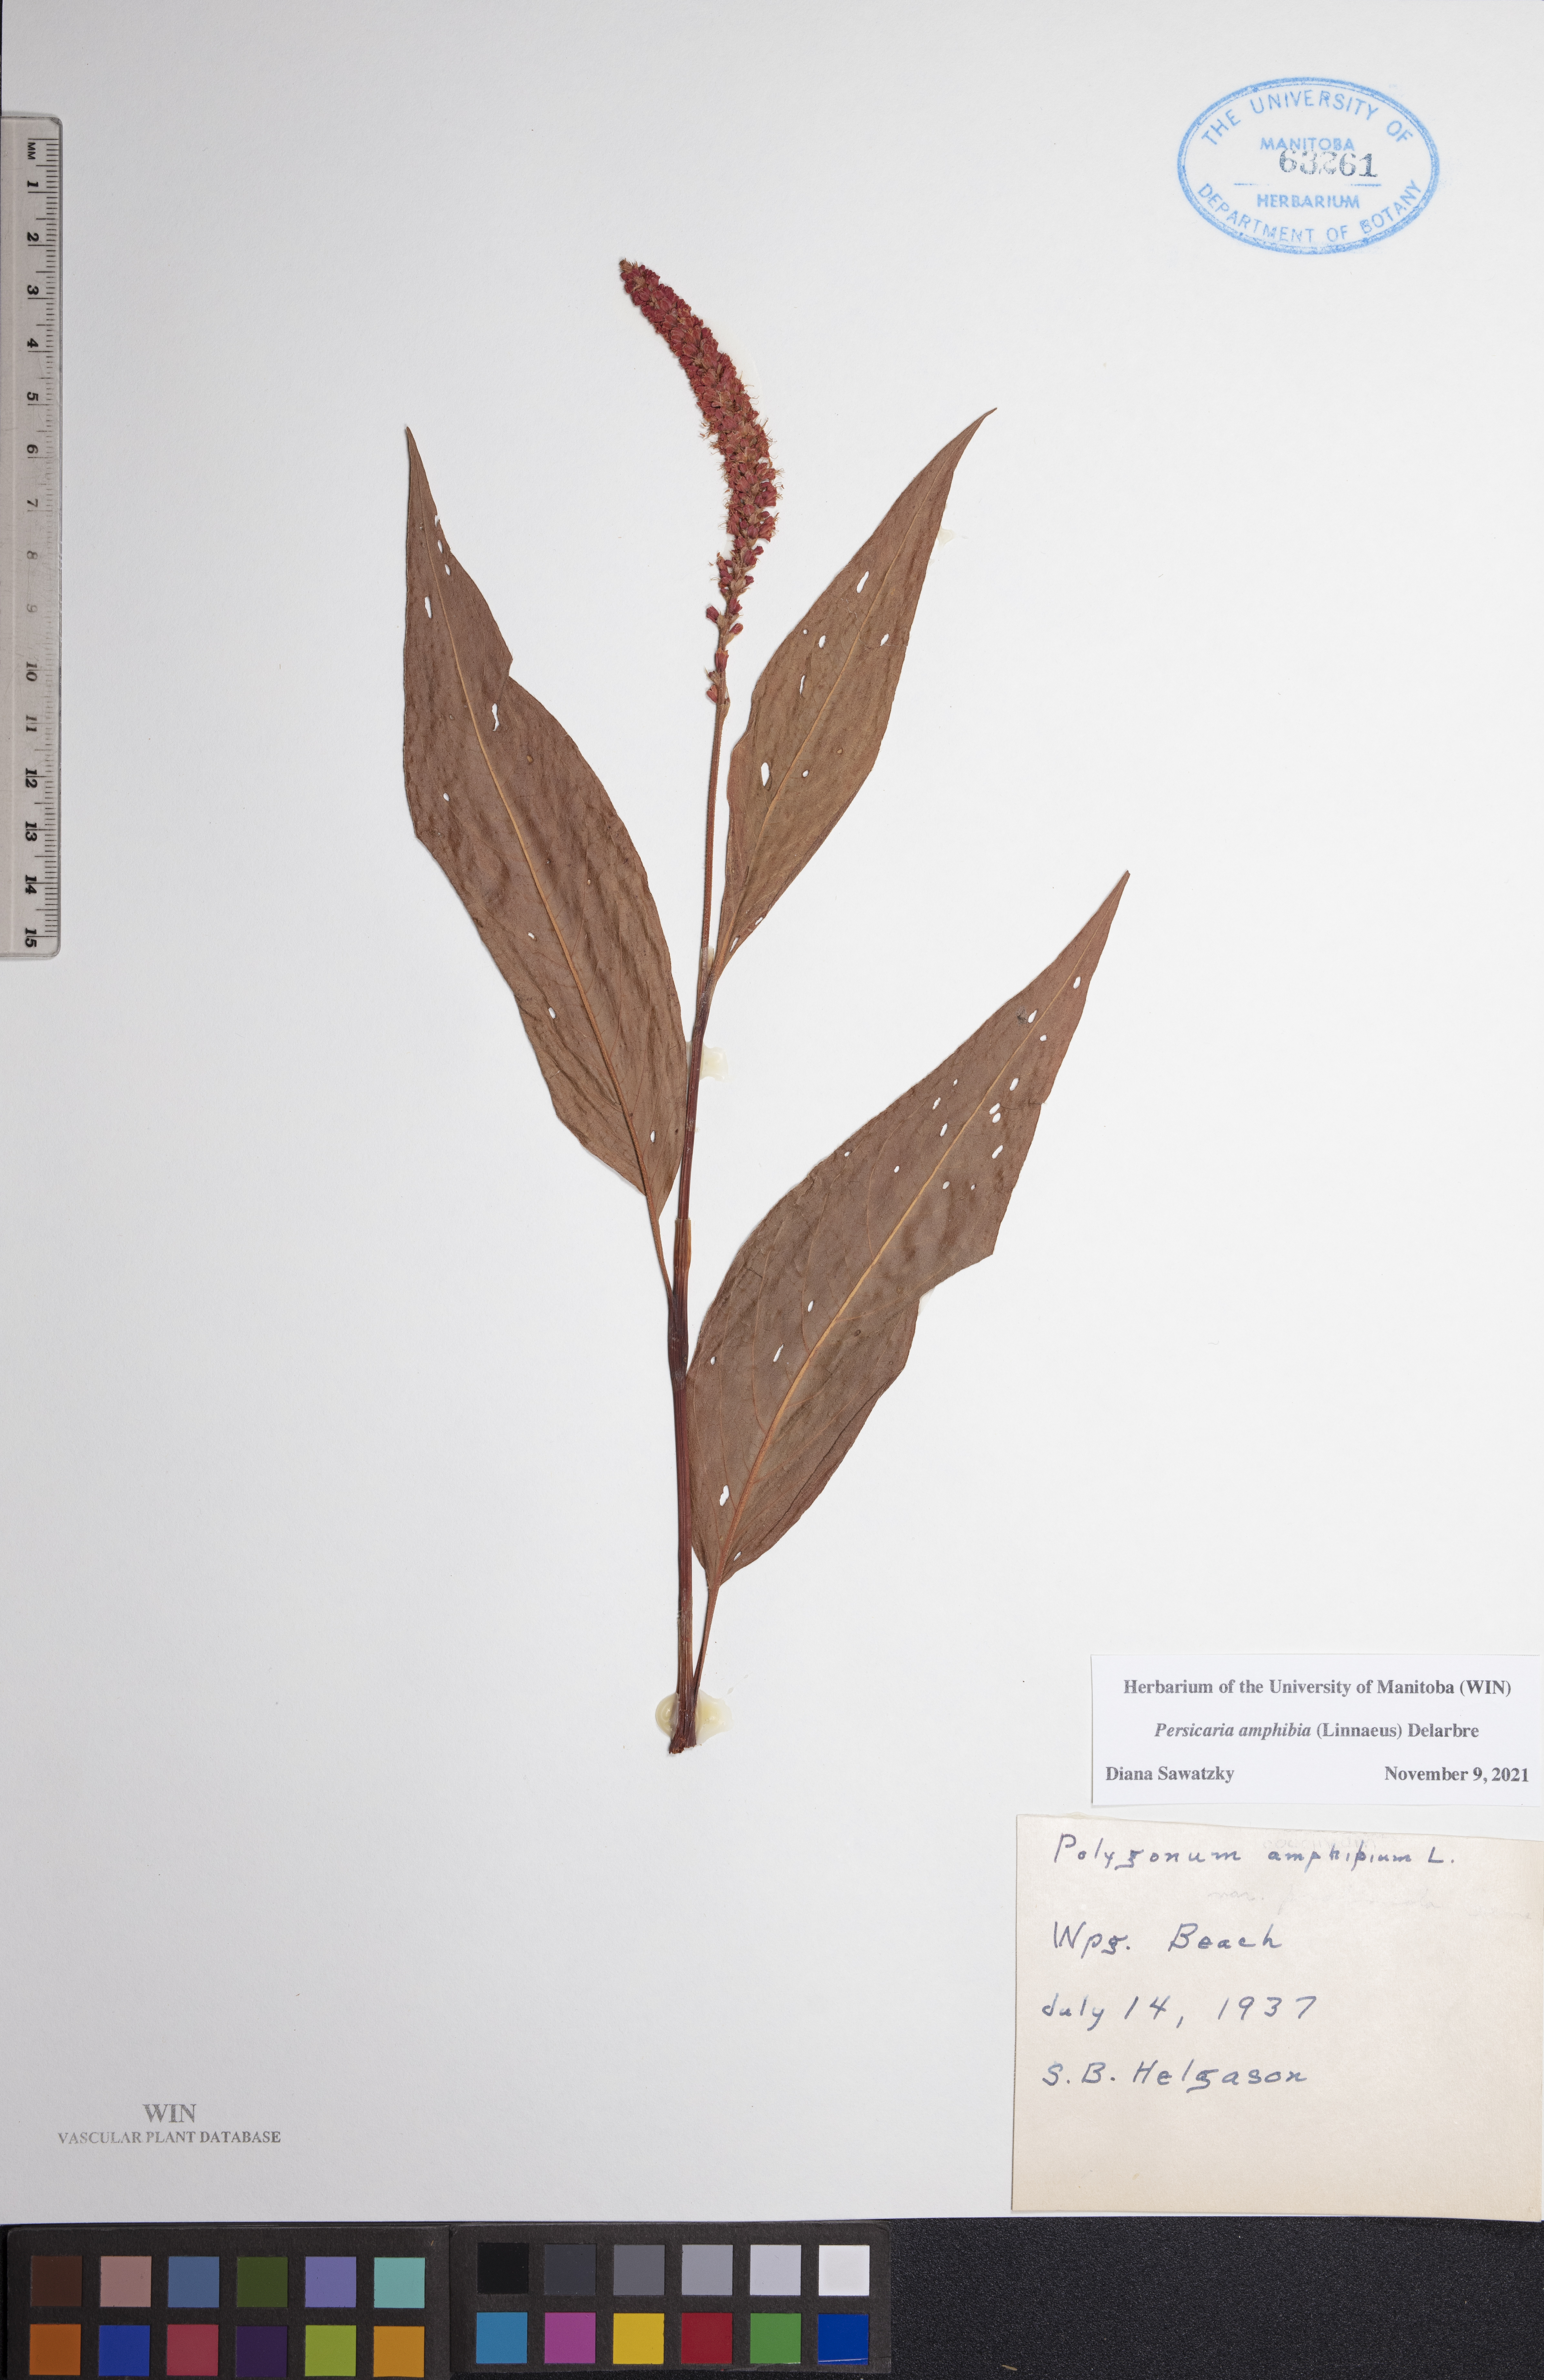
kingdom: Plantae
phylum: Tracheophyta
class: Magnoliopsida
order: Caryophyllales
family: Polygonaceae
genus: Persicaria
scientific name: Persicaria amphibia
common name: Amphibious bistort
